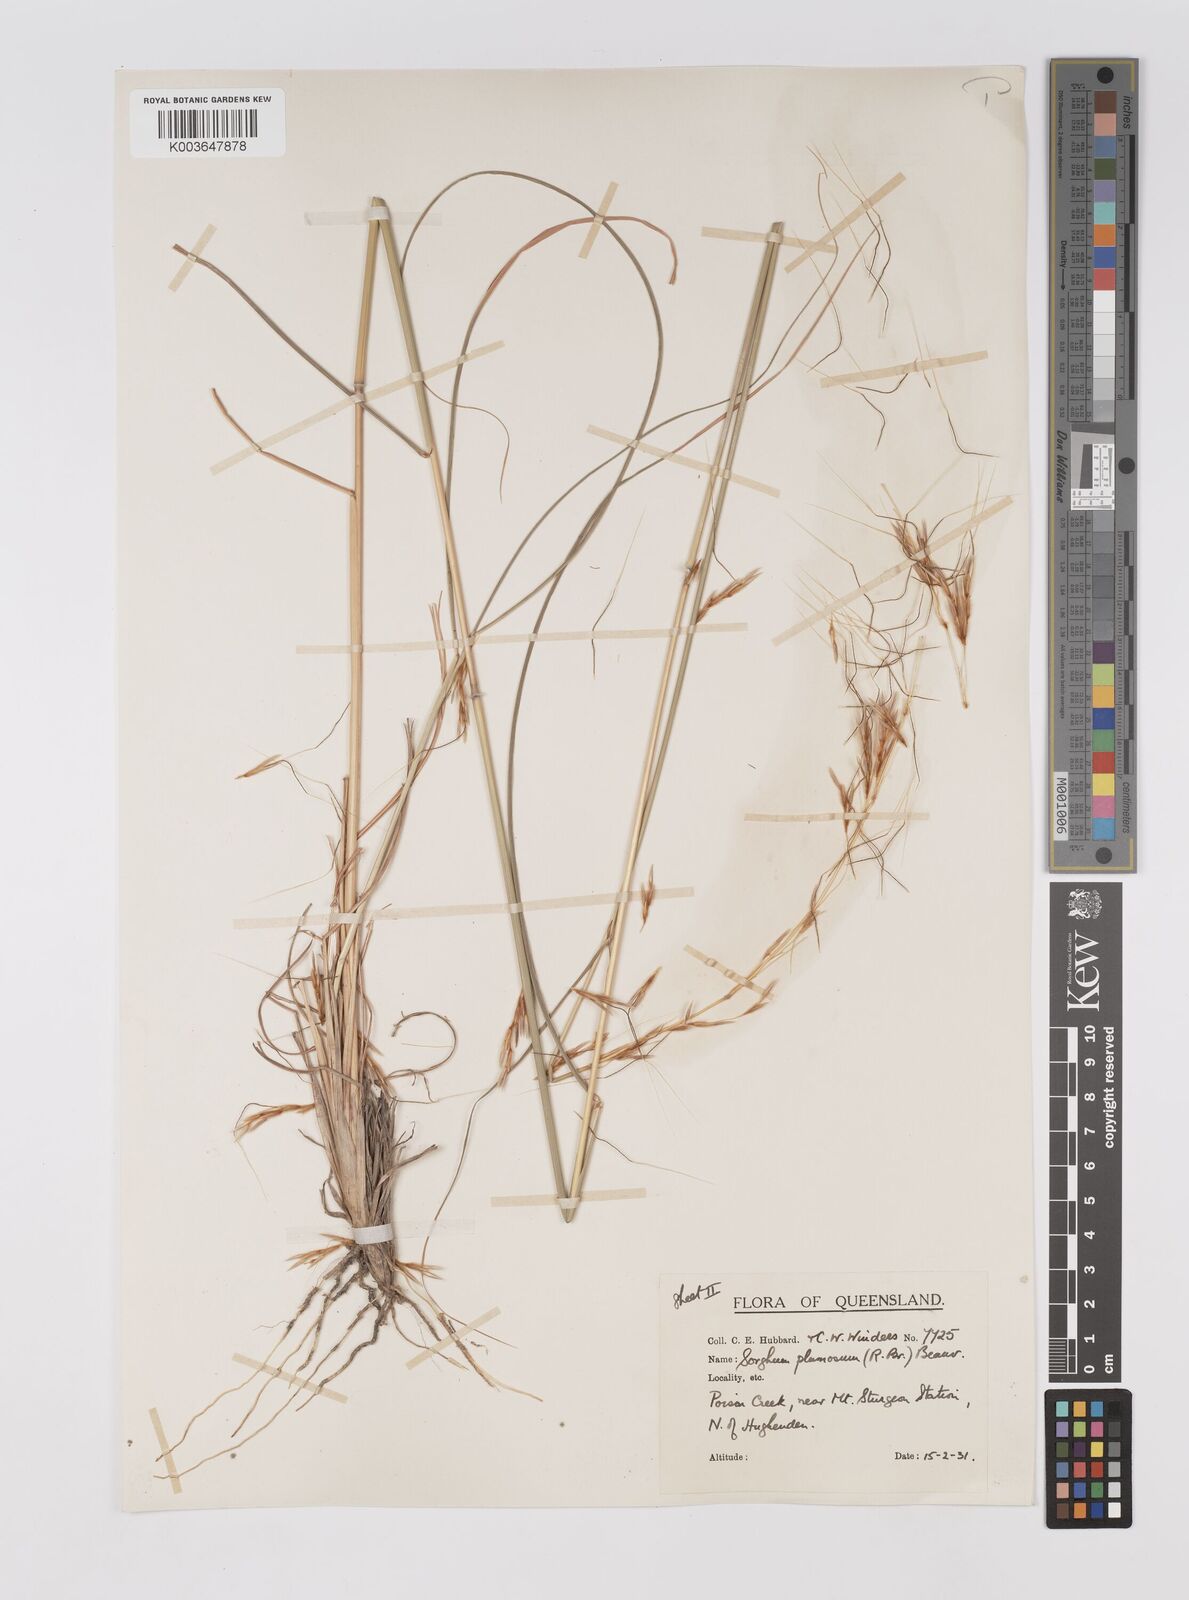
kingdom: Plantae
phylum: Tracheophyta
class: Liliopsida
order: Poales
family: Poaceae
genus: Sarga
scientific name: Sarga plumosa
